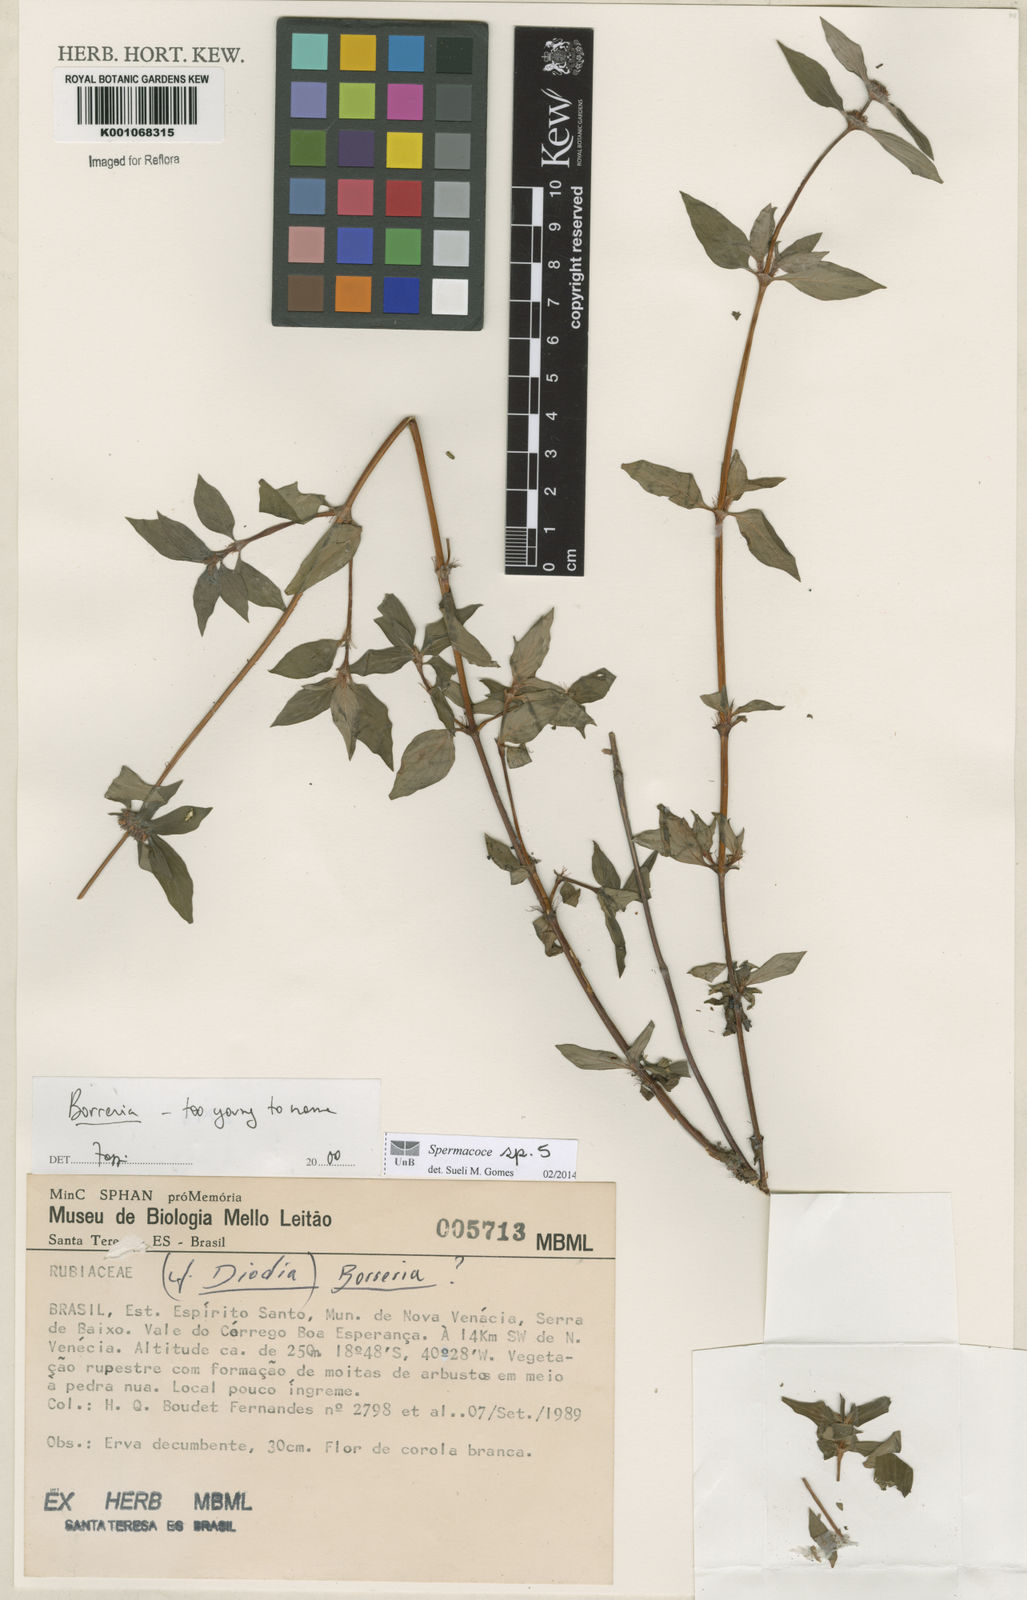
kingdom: Plantae
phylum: Tracheophyta
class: Magnoliopsida
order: Gentianales
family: Rubiaceae
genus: Spermacoce
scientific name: Spermacoce
